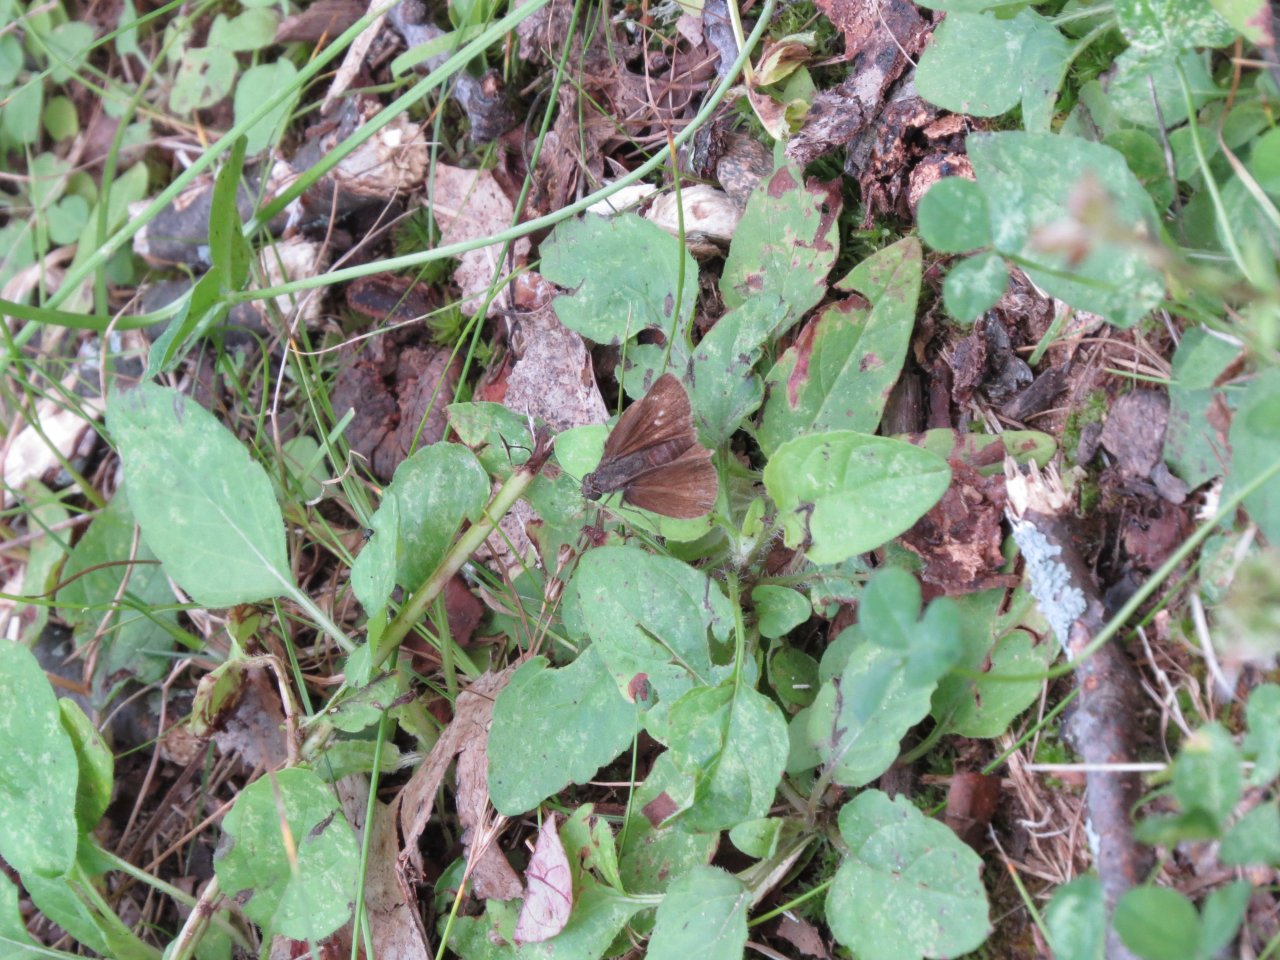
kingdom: Animalia
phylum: Arthropoda
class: Insecta
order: Lepidoptera
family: Hesperiidae
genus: Polites
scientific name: Polites egeremet
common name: Northern Broken-Dash
